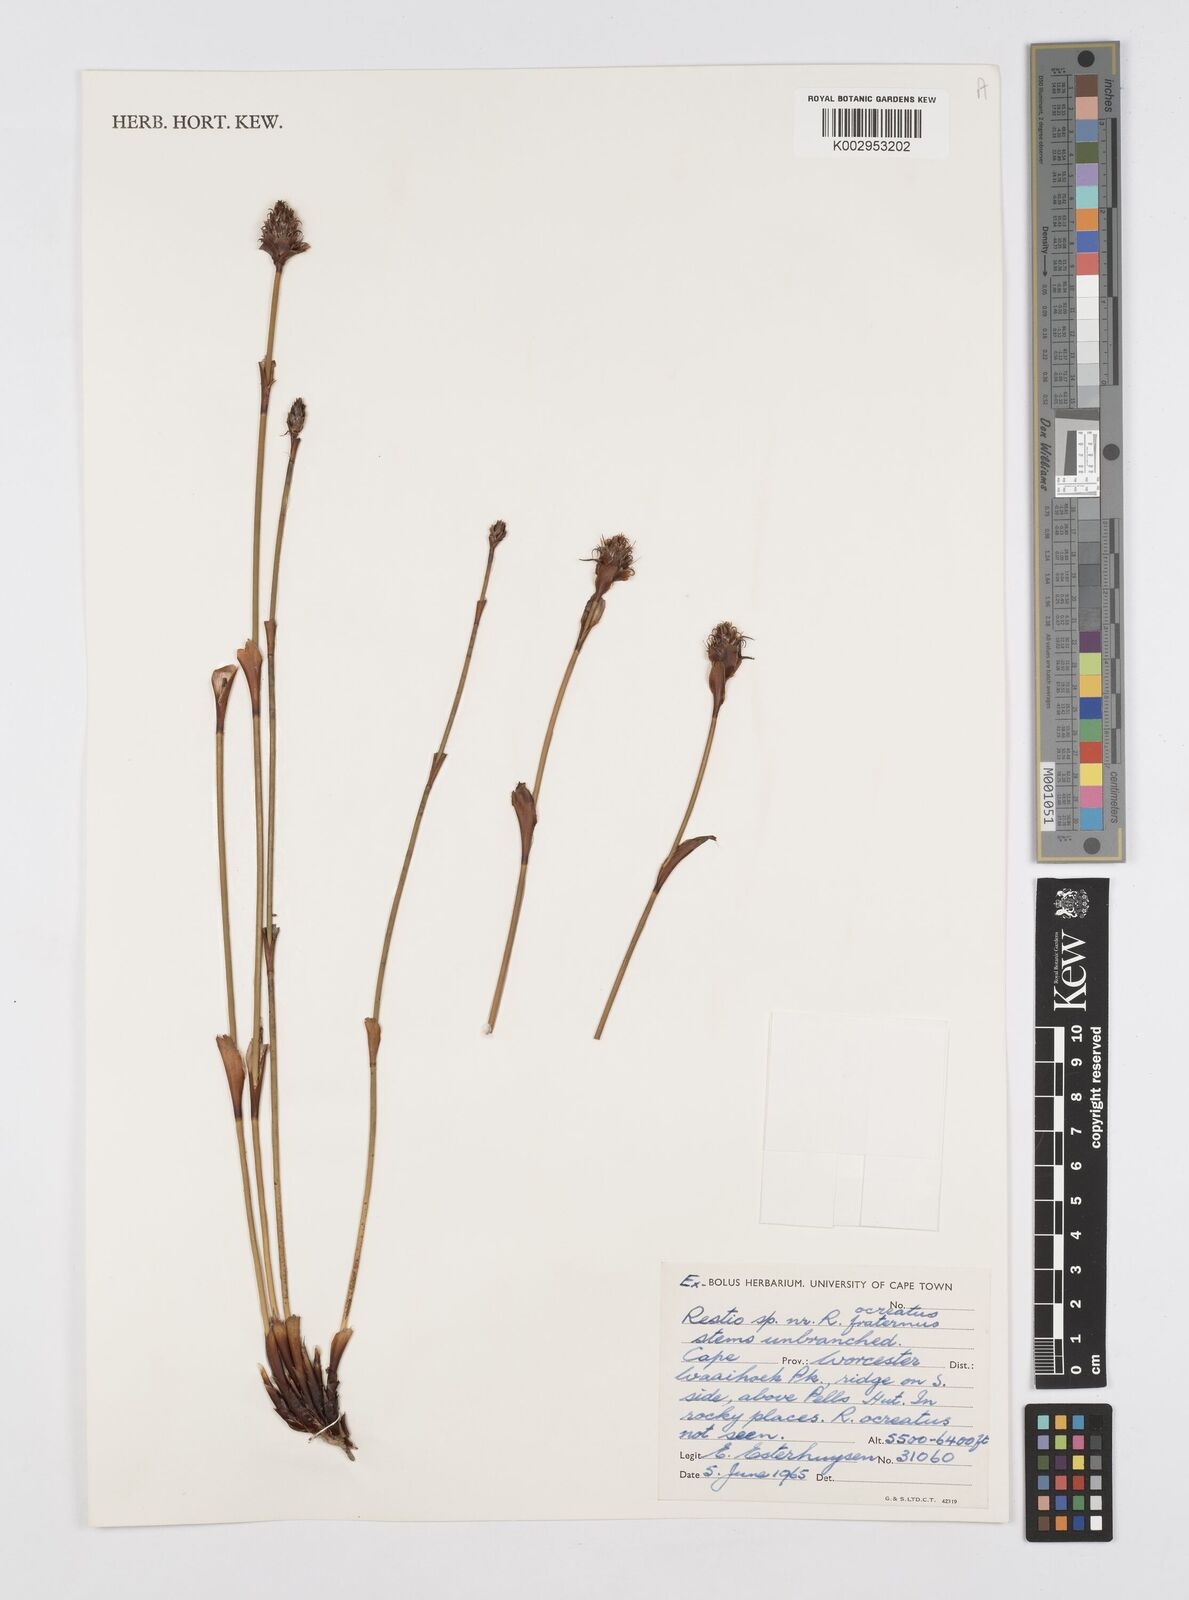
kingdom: Plantae
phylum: Tracheophyta
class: Liliopsida
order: Poales
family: Restionaceae
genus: Restio
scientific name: Restio fraternus
